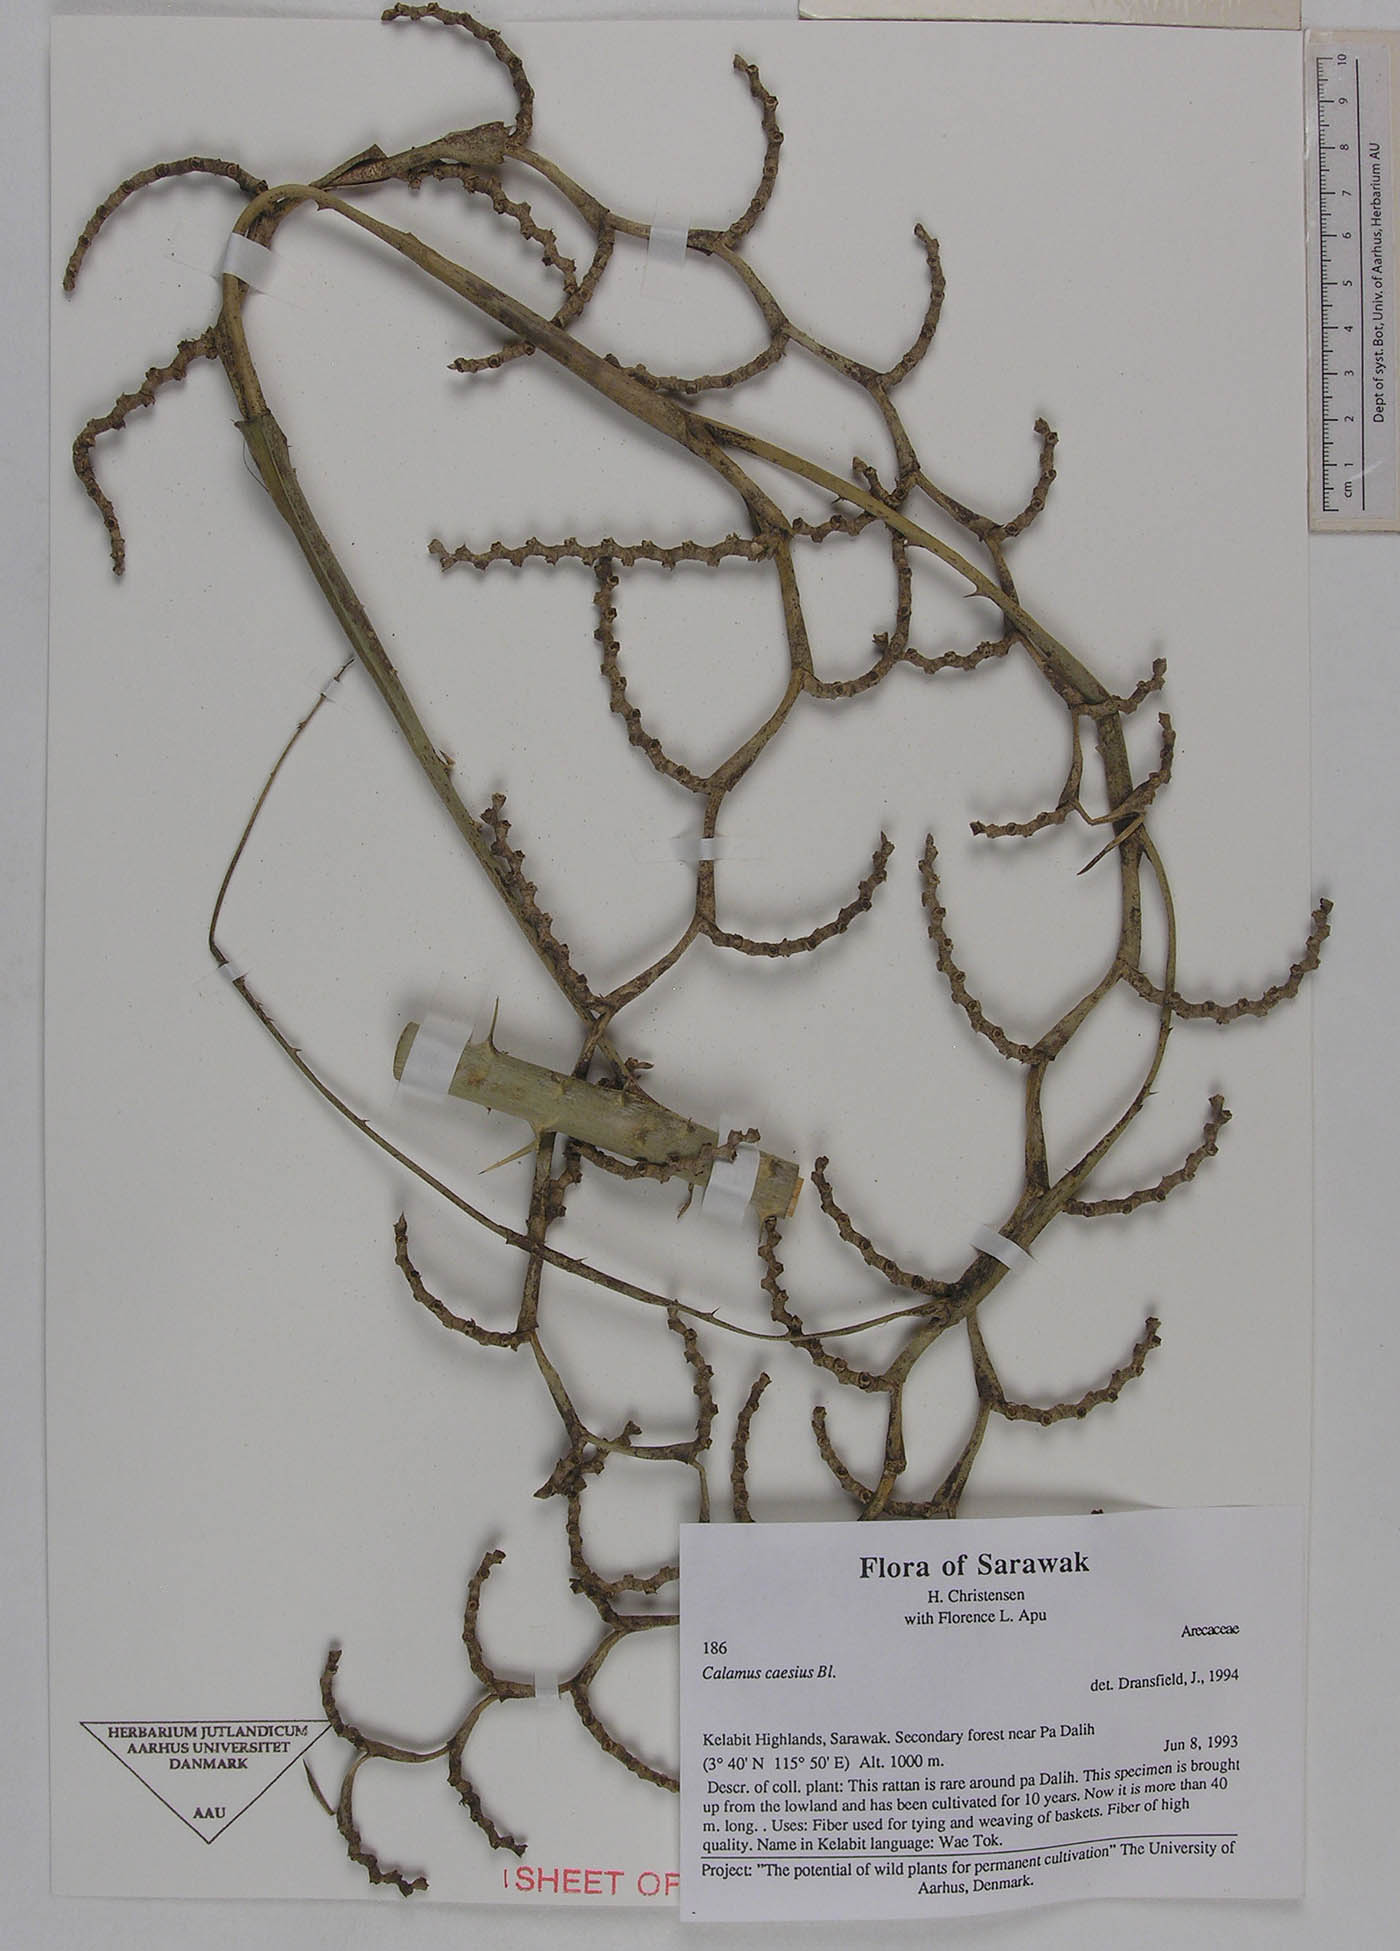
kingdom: Plantae
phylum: Tracheophyta
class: Liliopsida
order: Arecales
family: Arecaceae
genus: Calamus
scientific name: Calamus caesius
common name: Rattan palm
